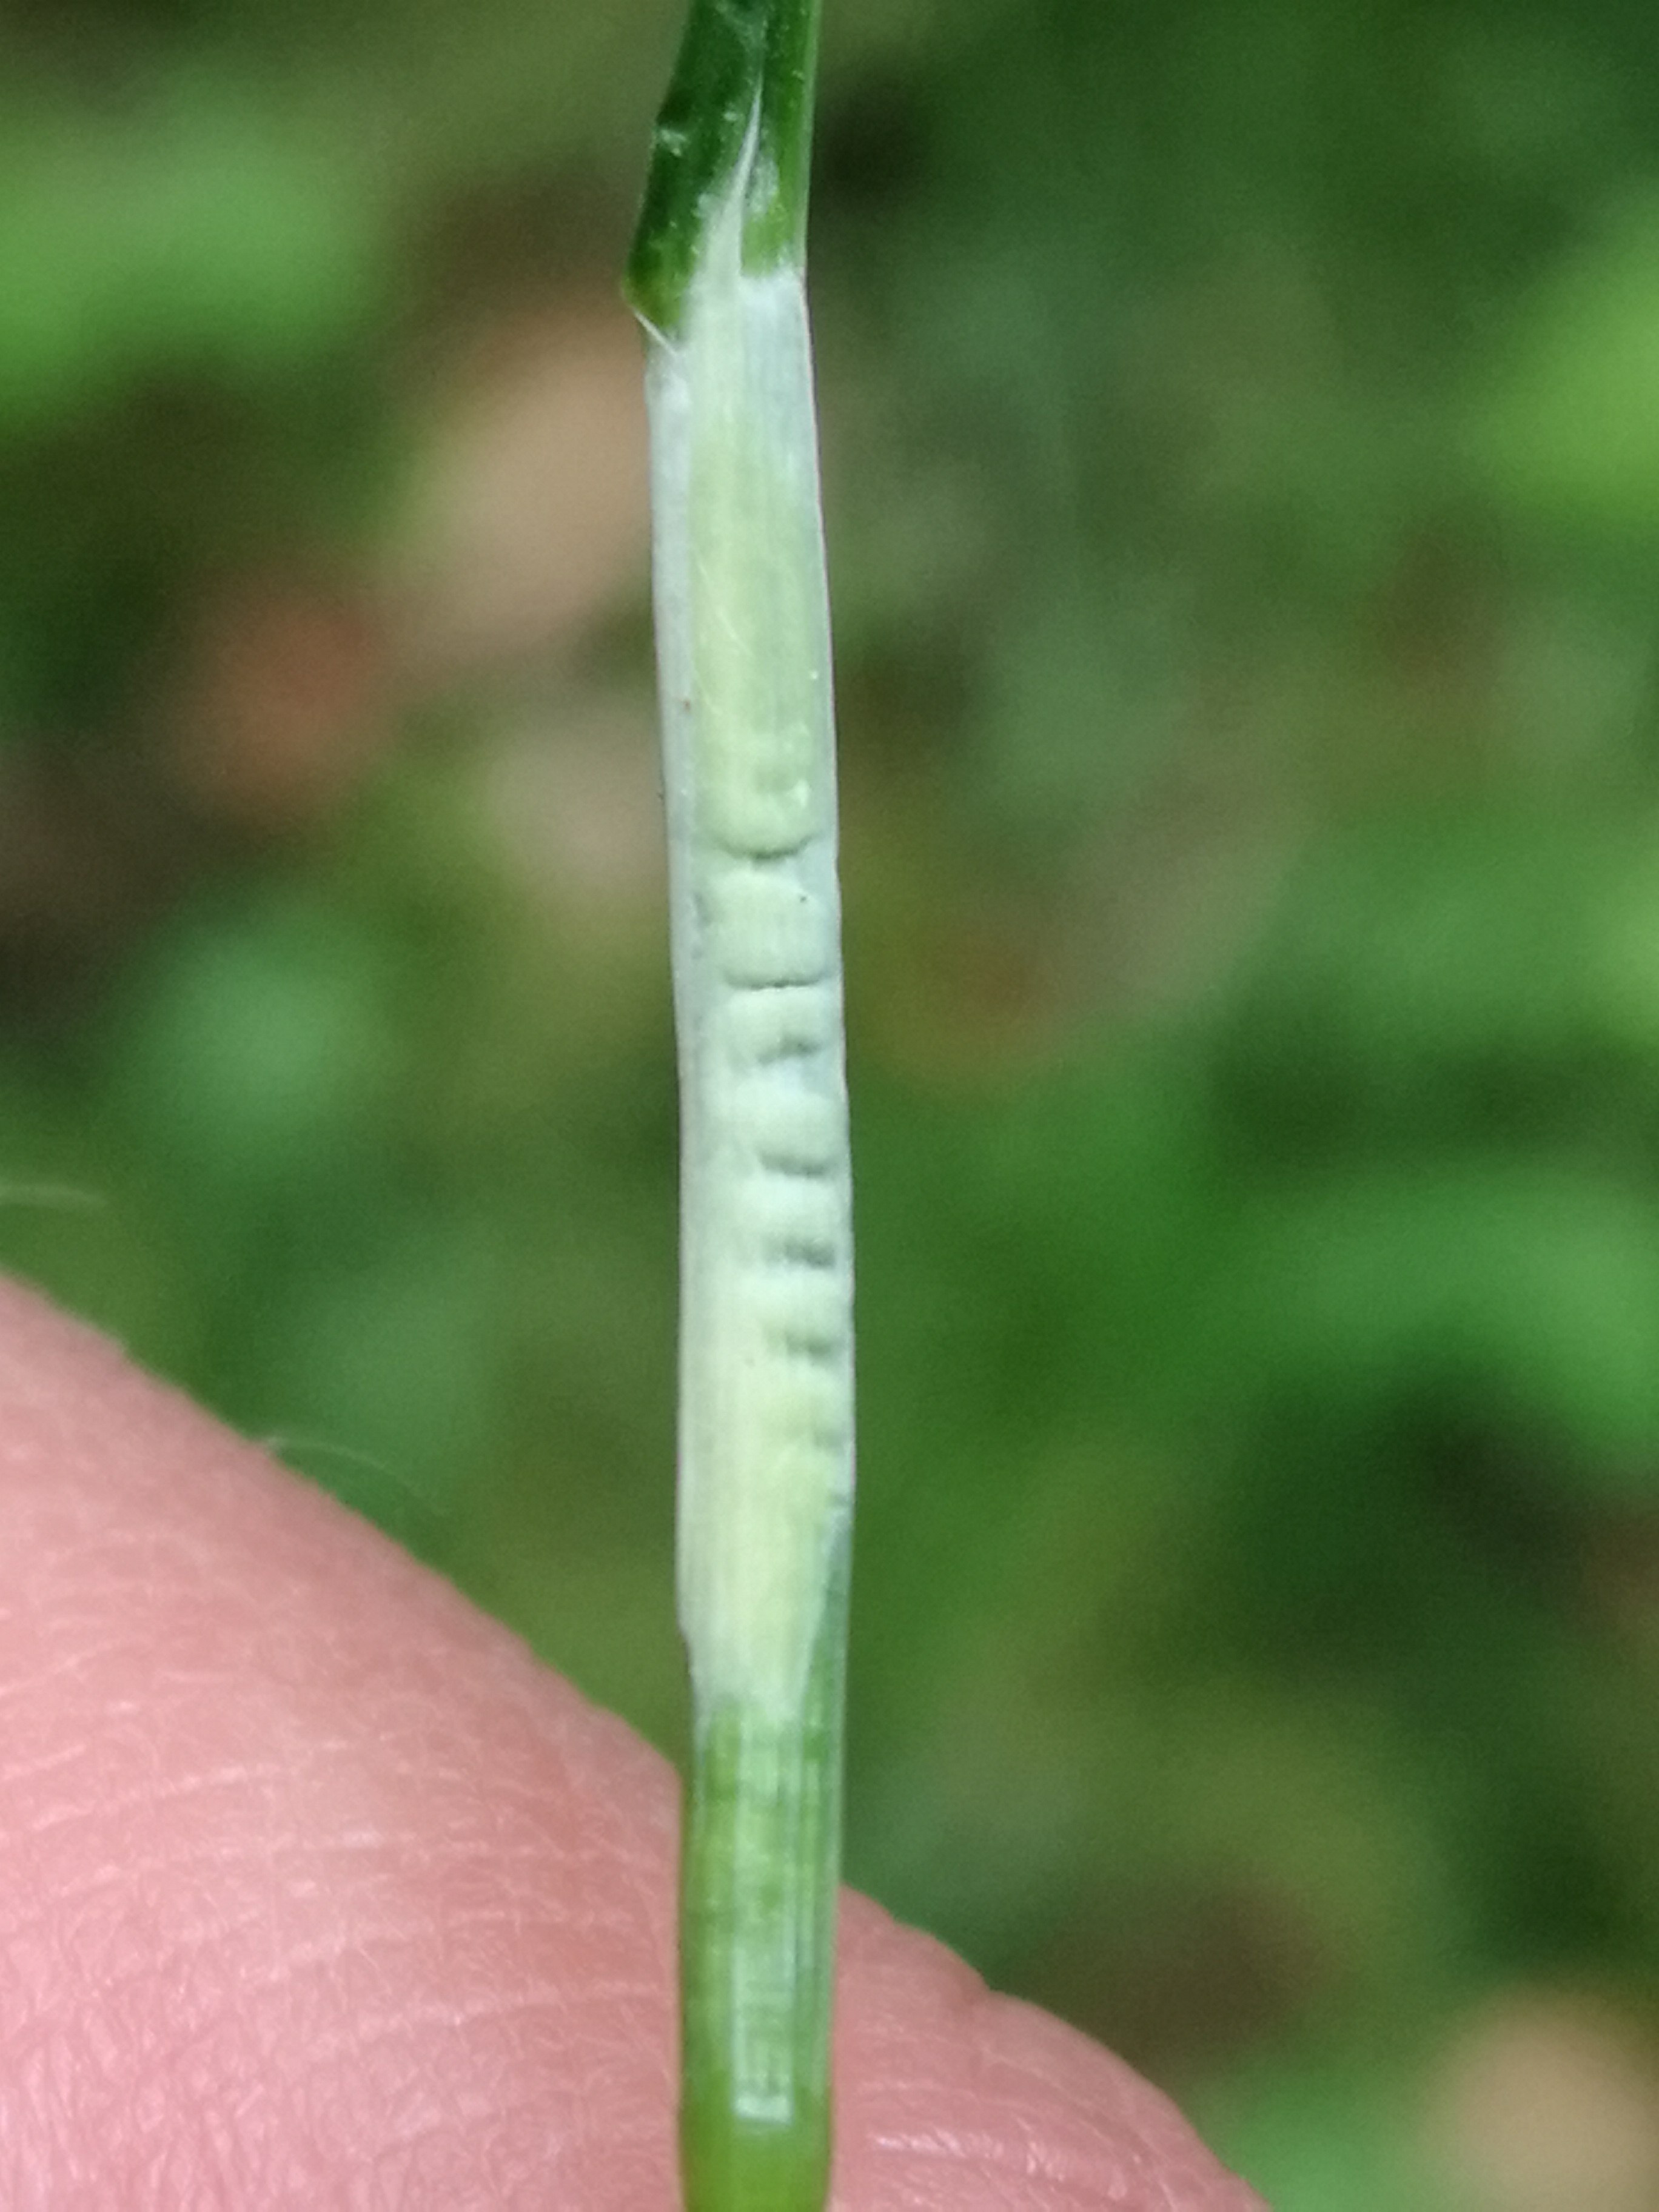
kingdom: Fungi
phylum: Ascomycota
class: Sordariomycetes
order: Hypocreales
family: Clavicipitaceae
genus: Epichloe
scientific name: Epichloe
